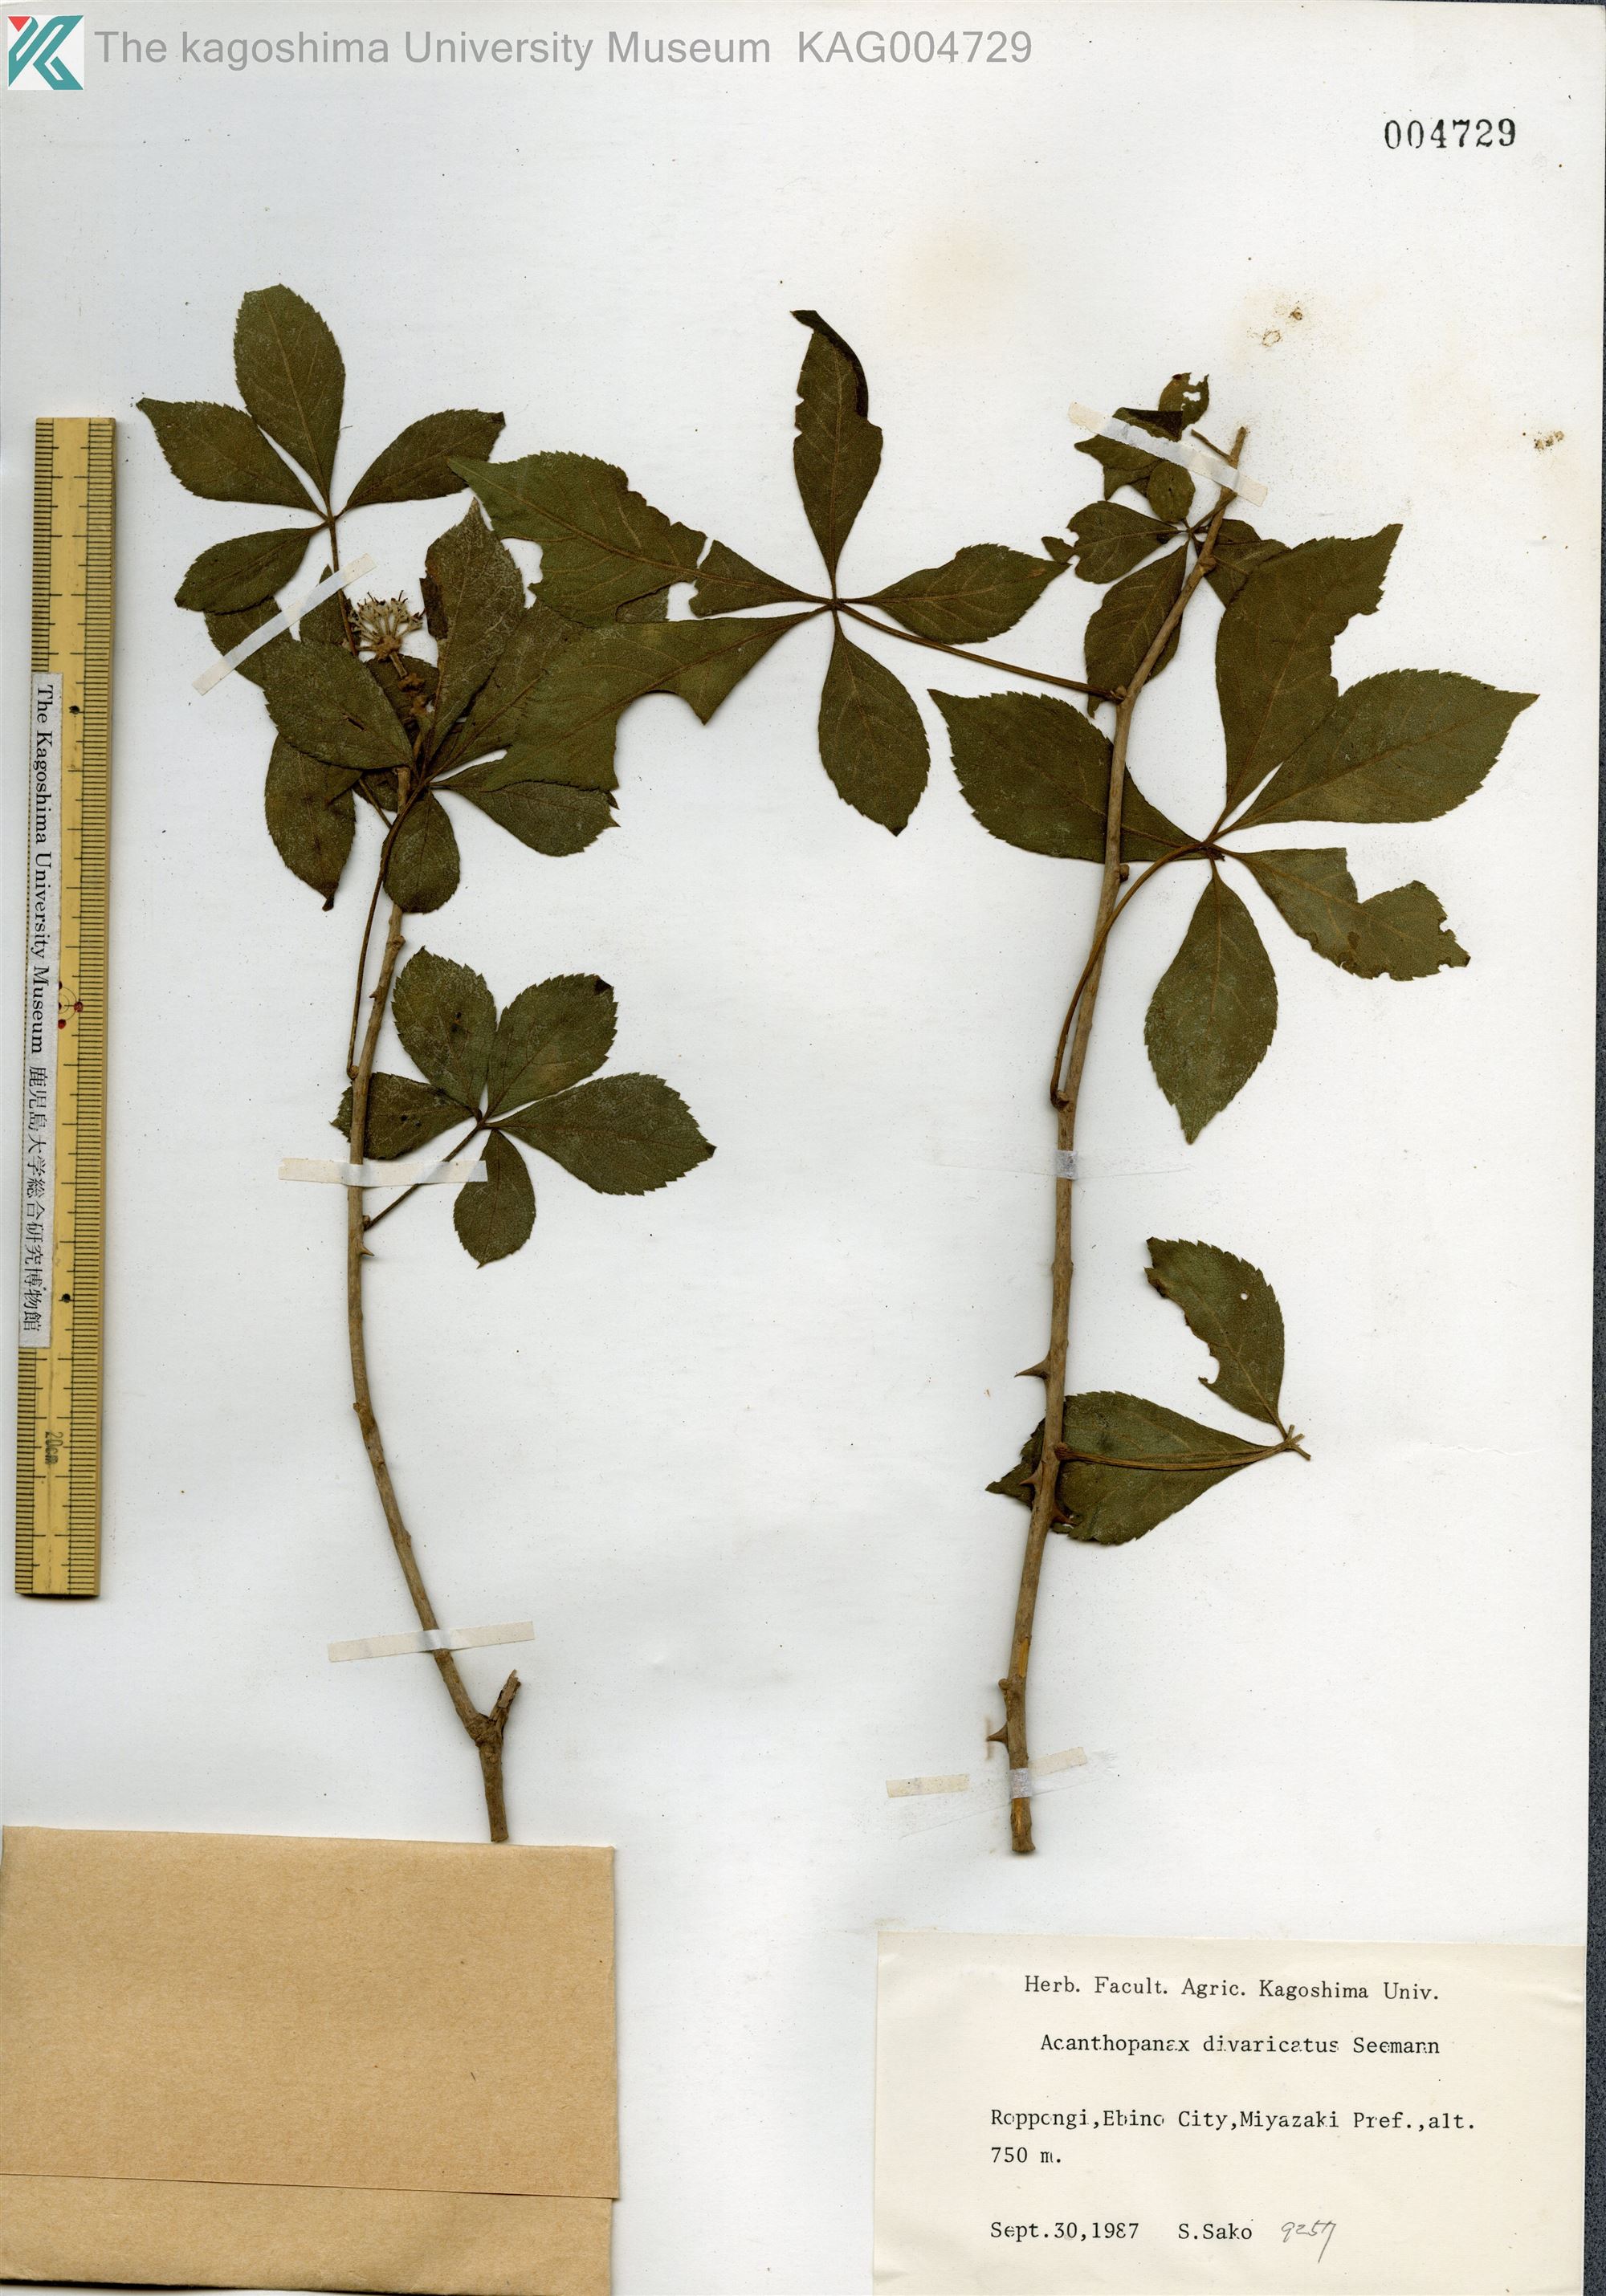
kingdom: Plantae
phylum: Tracheophyta
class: Magnoliopsida
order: Apiales
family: Araliaceae
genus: Eleutherococcus
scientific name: Eleutherococcus divaricatus
